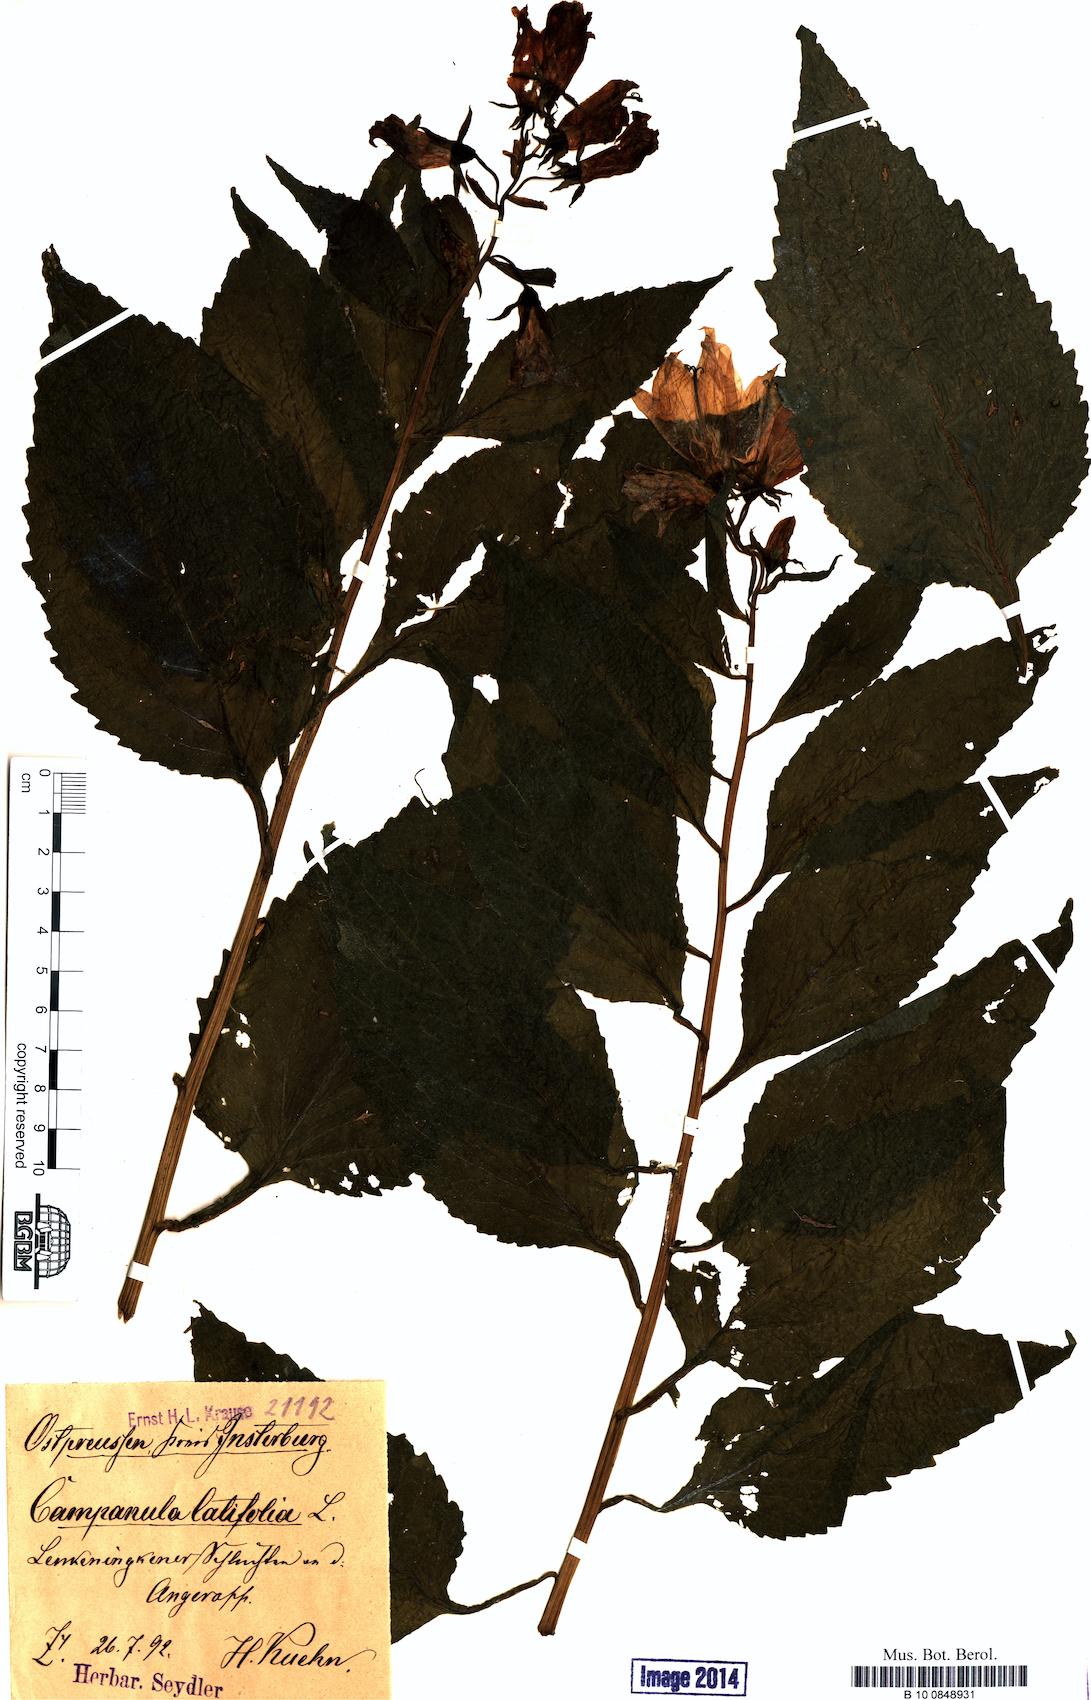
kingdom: Plantae
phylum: Tracheophyta
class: Magnoliopsida
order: Asterales
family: Campanulaceae
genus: Campanula
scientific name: Campanula latifolia
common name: Giant bellflower
